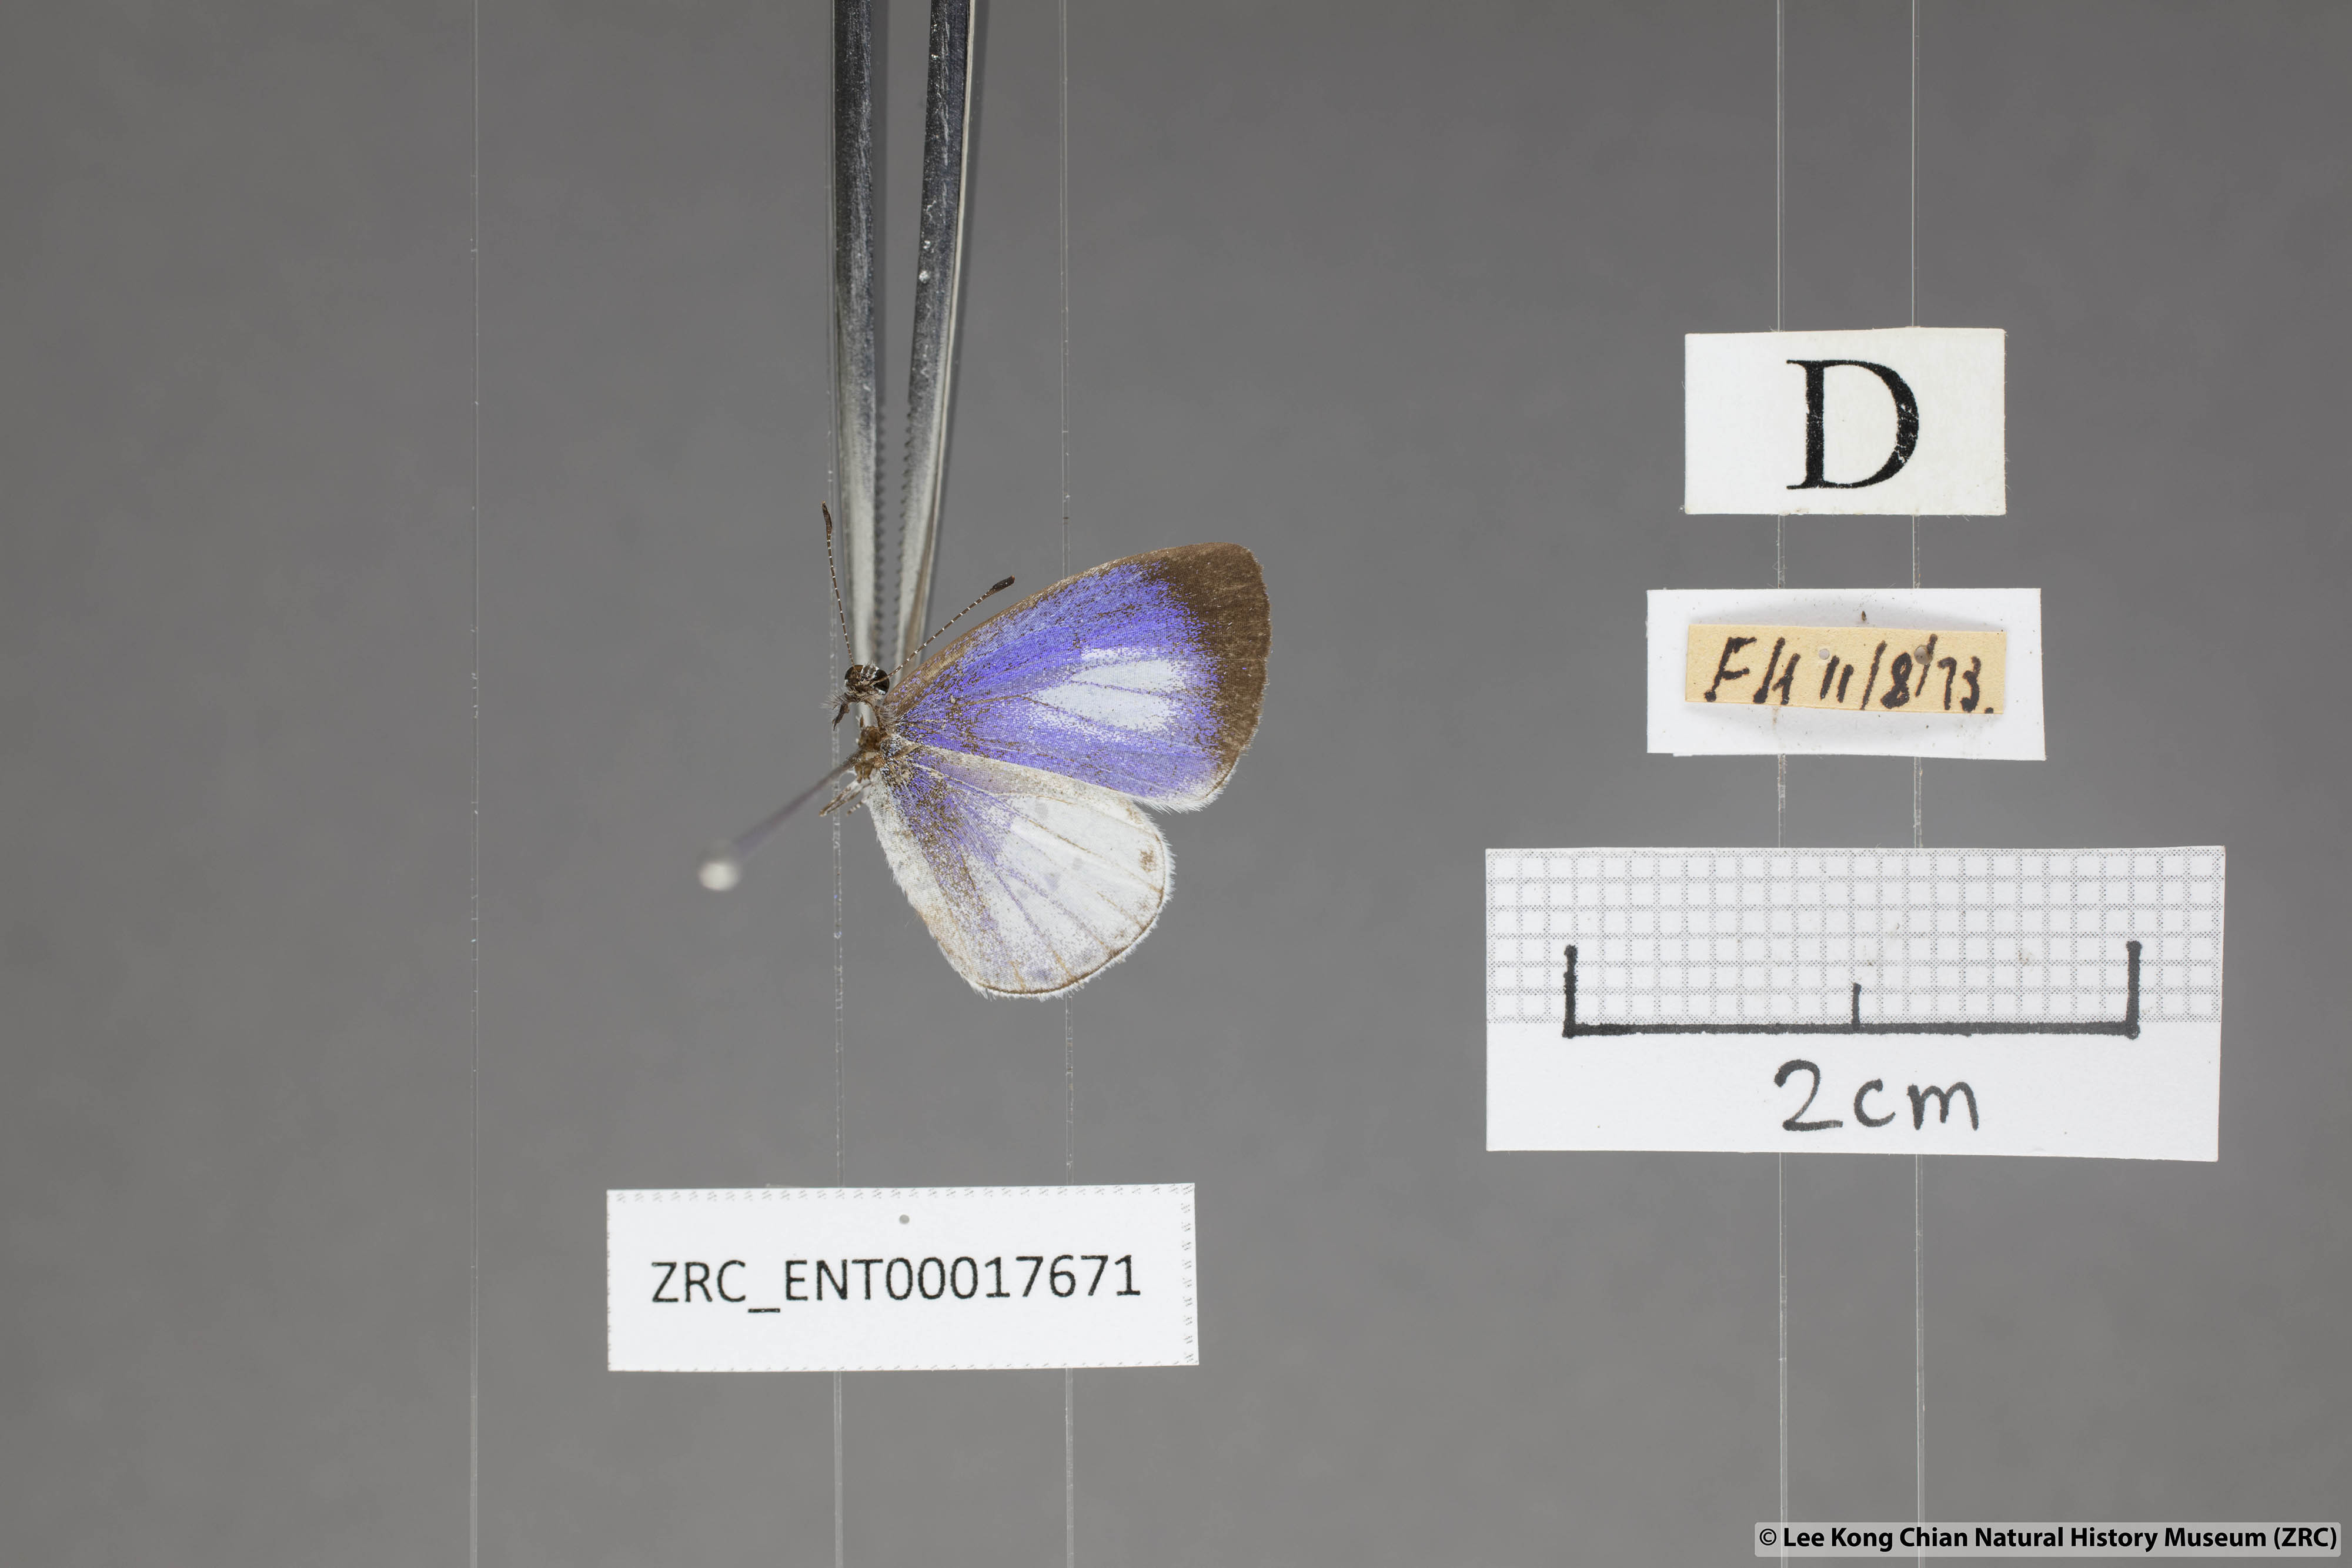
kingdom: Animalia
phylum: Arthropoda
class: Insecta
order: Lepidoptera
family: Lycaenidae
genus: Udara
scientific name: Udara albocaerulea
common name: Albocerulean
